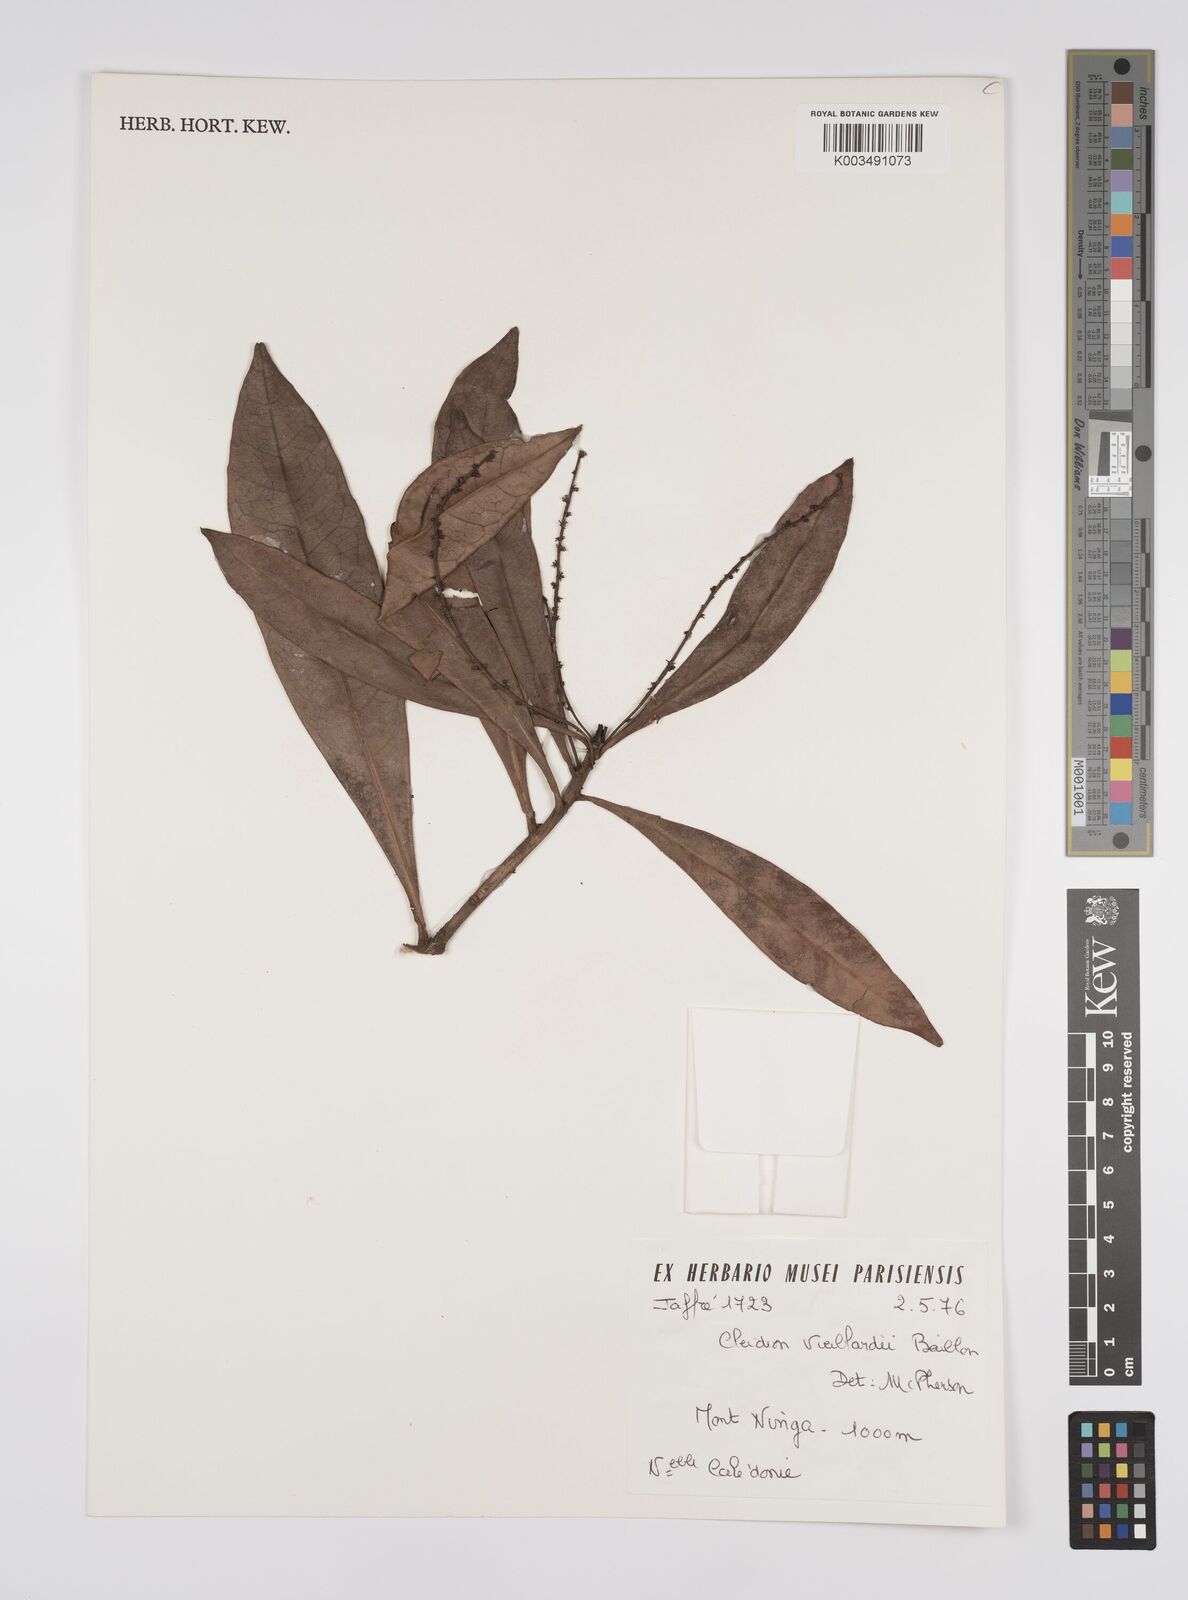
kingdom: Plantae
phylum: Tracheophyta
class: Magnoliopsida
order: Malpighiales
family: Euphorbiaceae
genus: Cleidion
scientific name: Cleidion vieillardii
